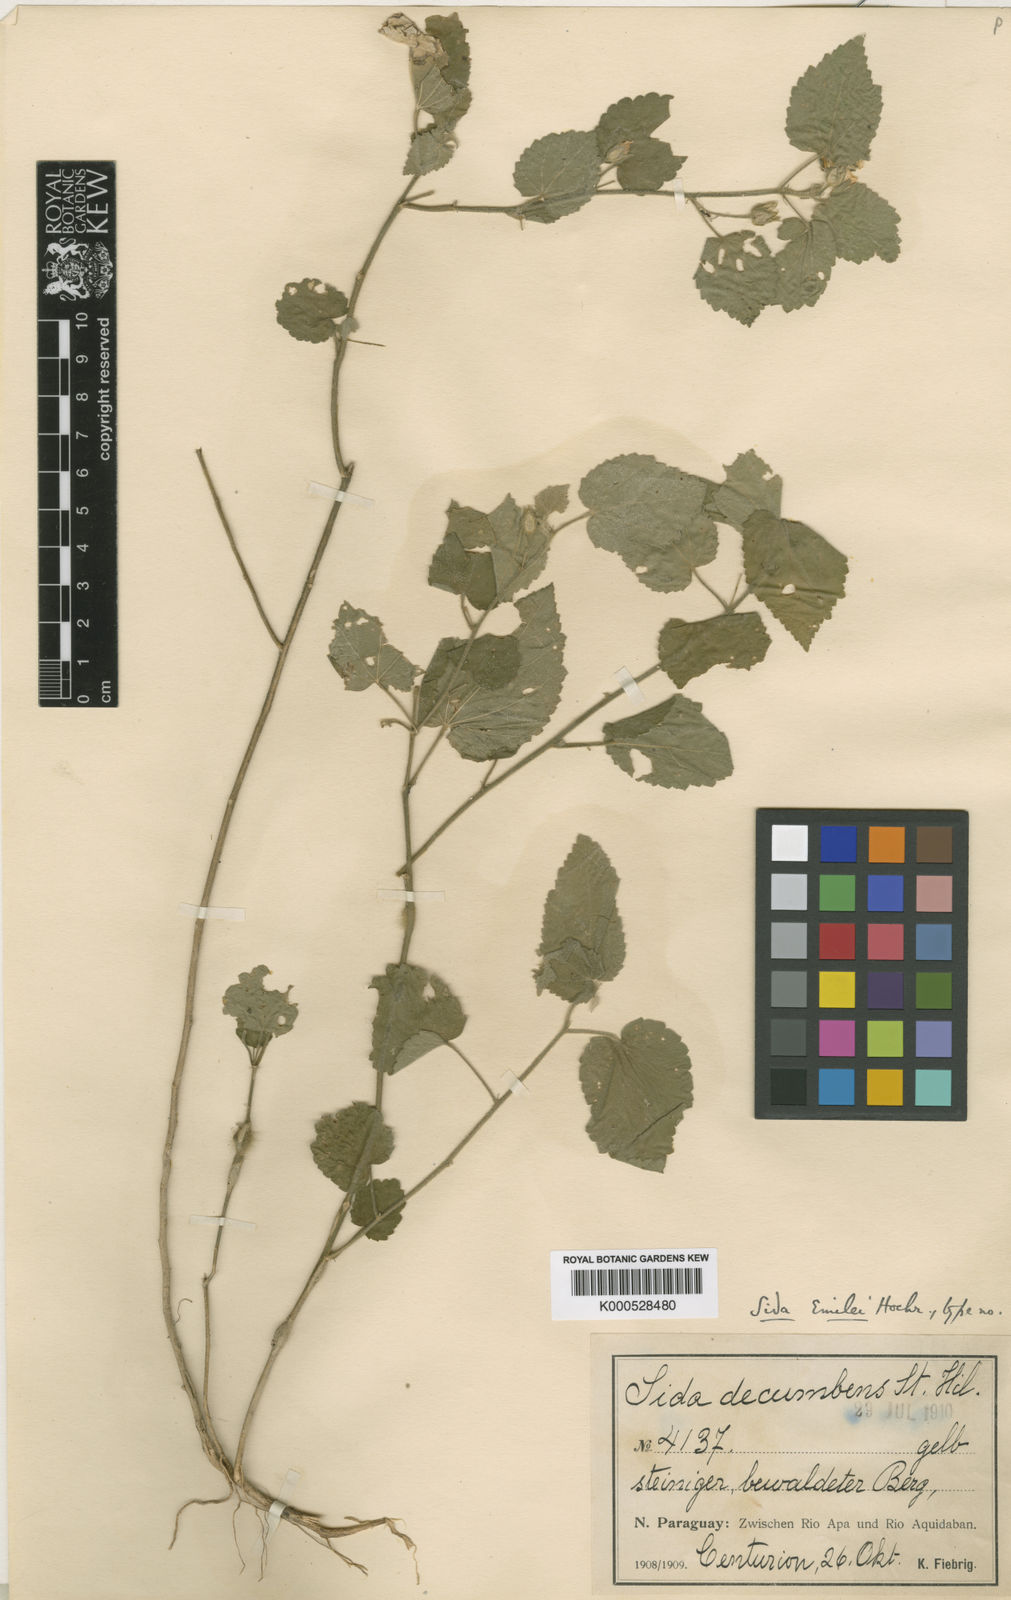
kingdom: Plantae
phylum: Tracheophyta
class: Magnoliopsida
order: Malvales
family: Malvaceae
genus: Sida
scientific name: Sida emilei
